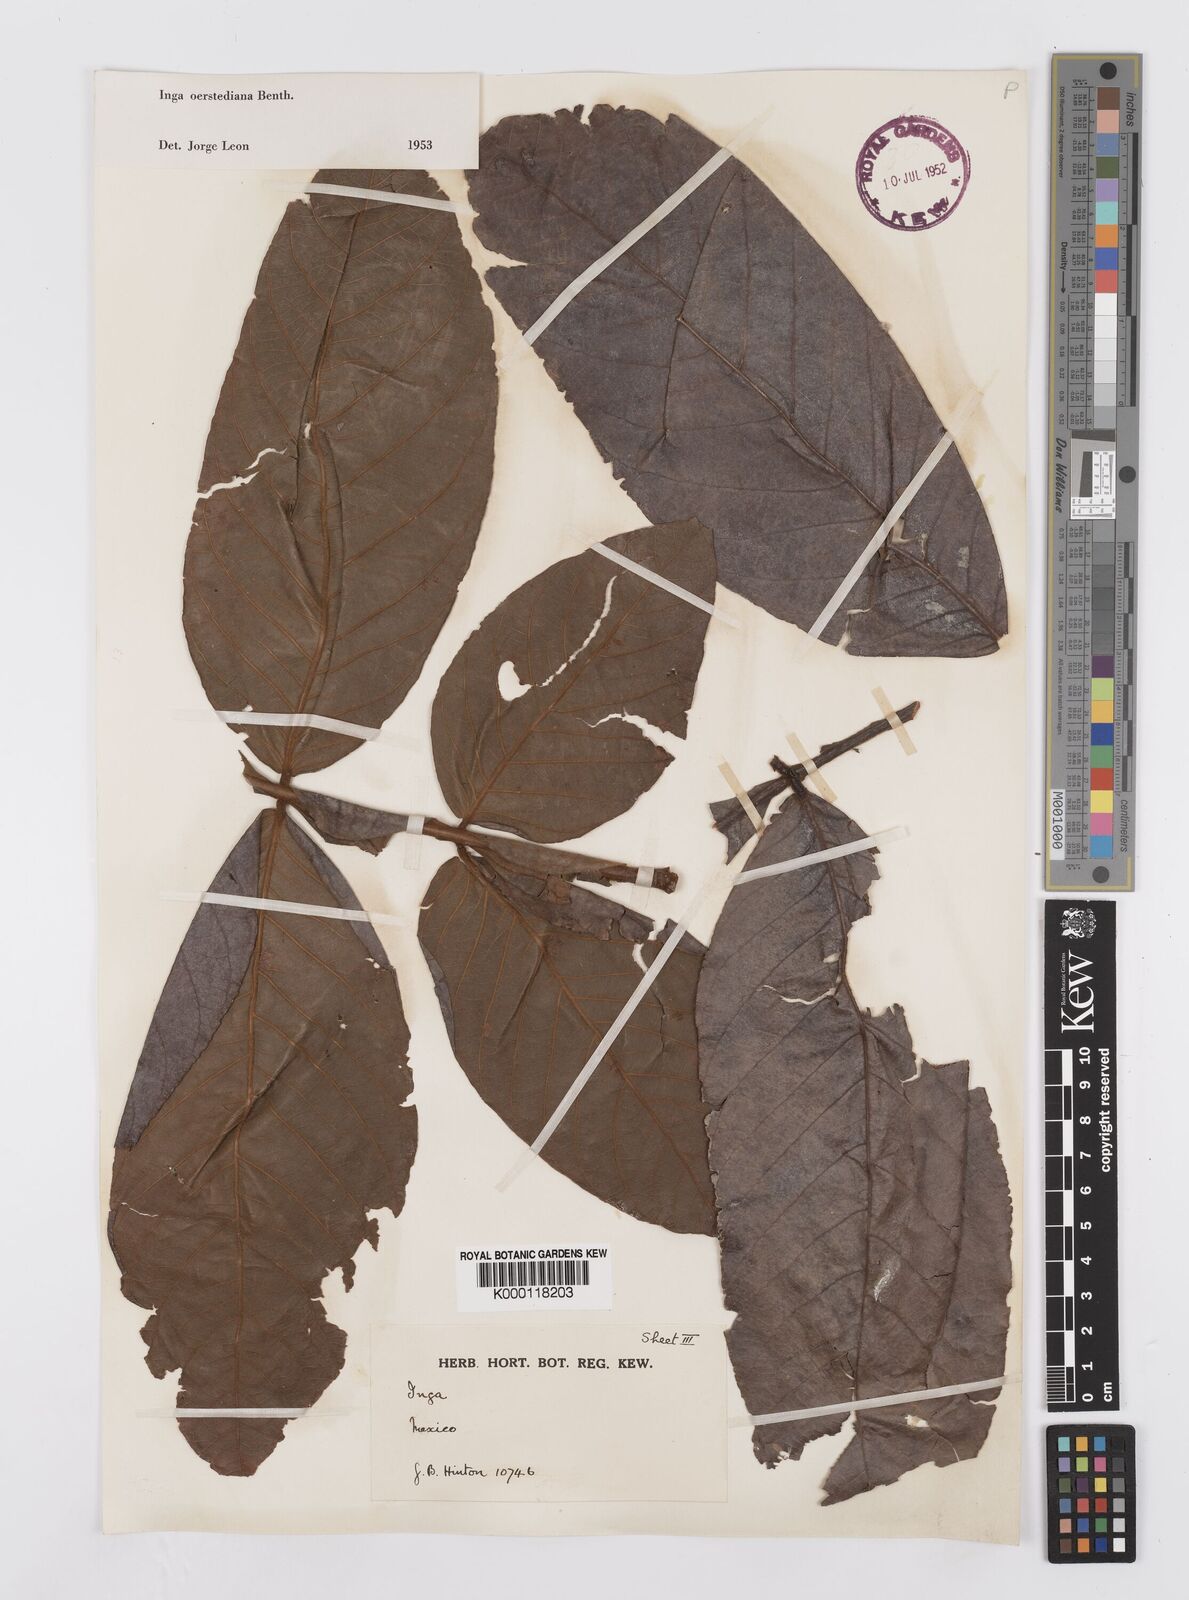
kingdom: Plantae
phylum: Tracheophyta
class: Magnoliopsida
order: Fabales
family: Fabaceae
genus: Inga
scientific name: Inga oerstediana
